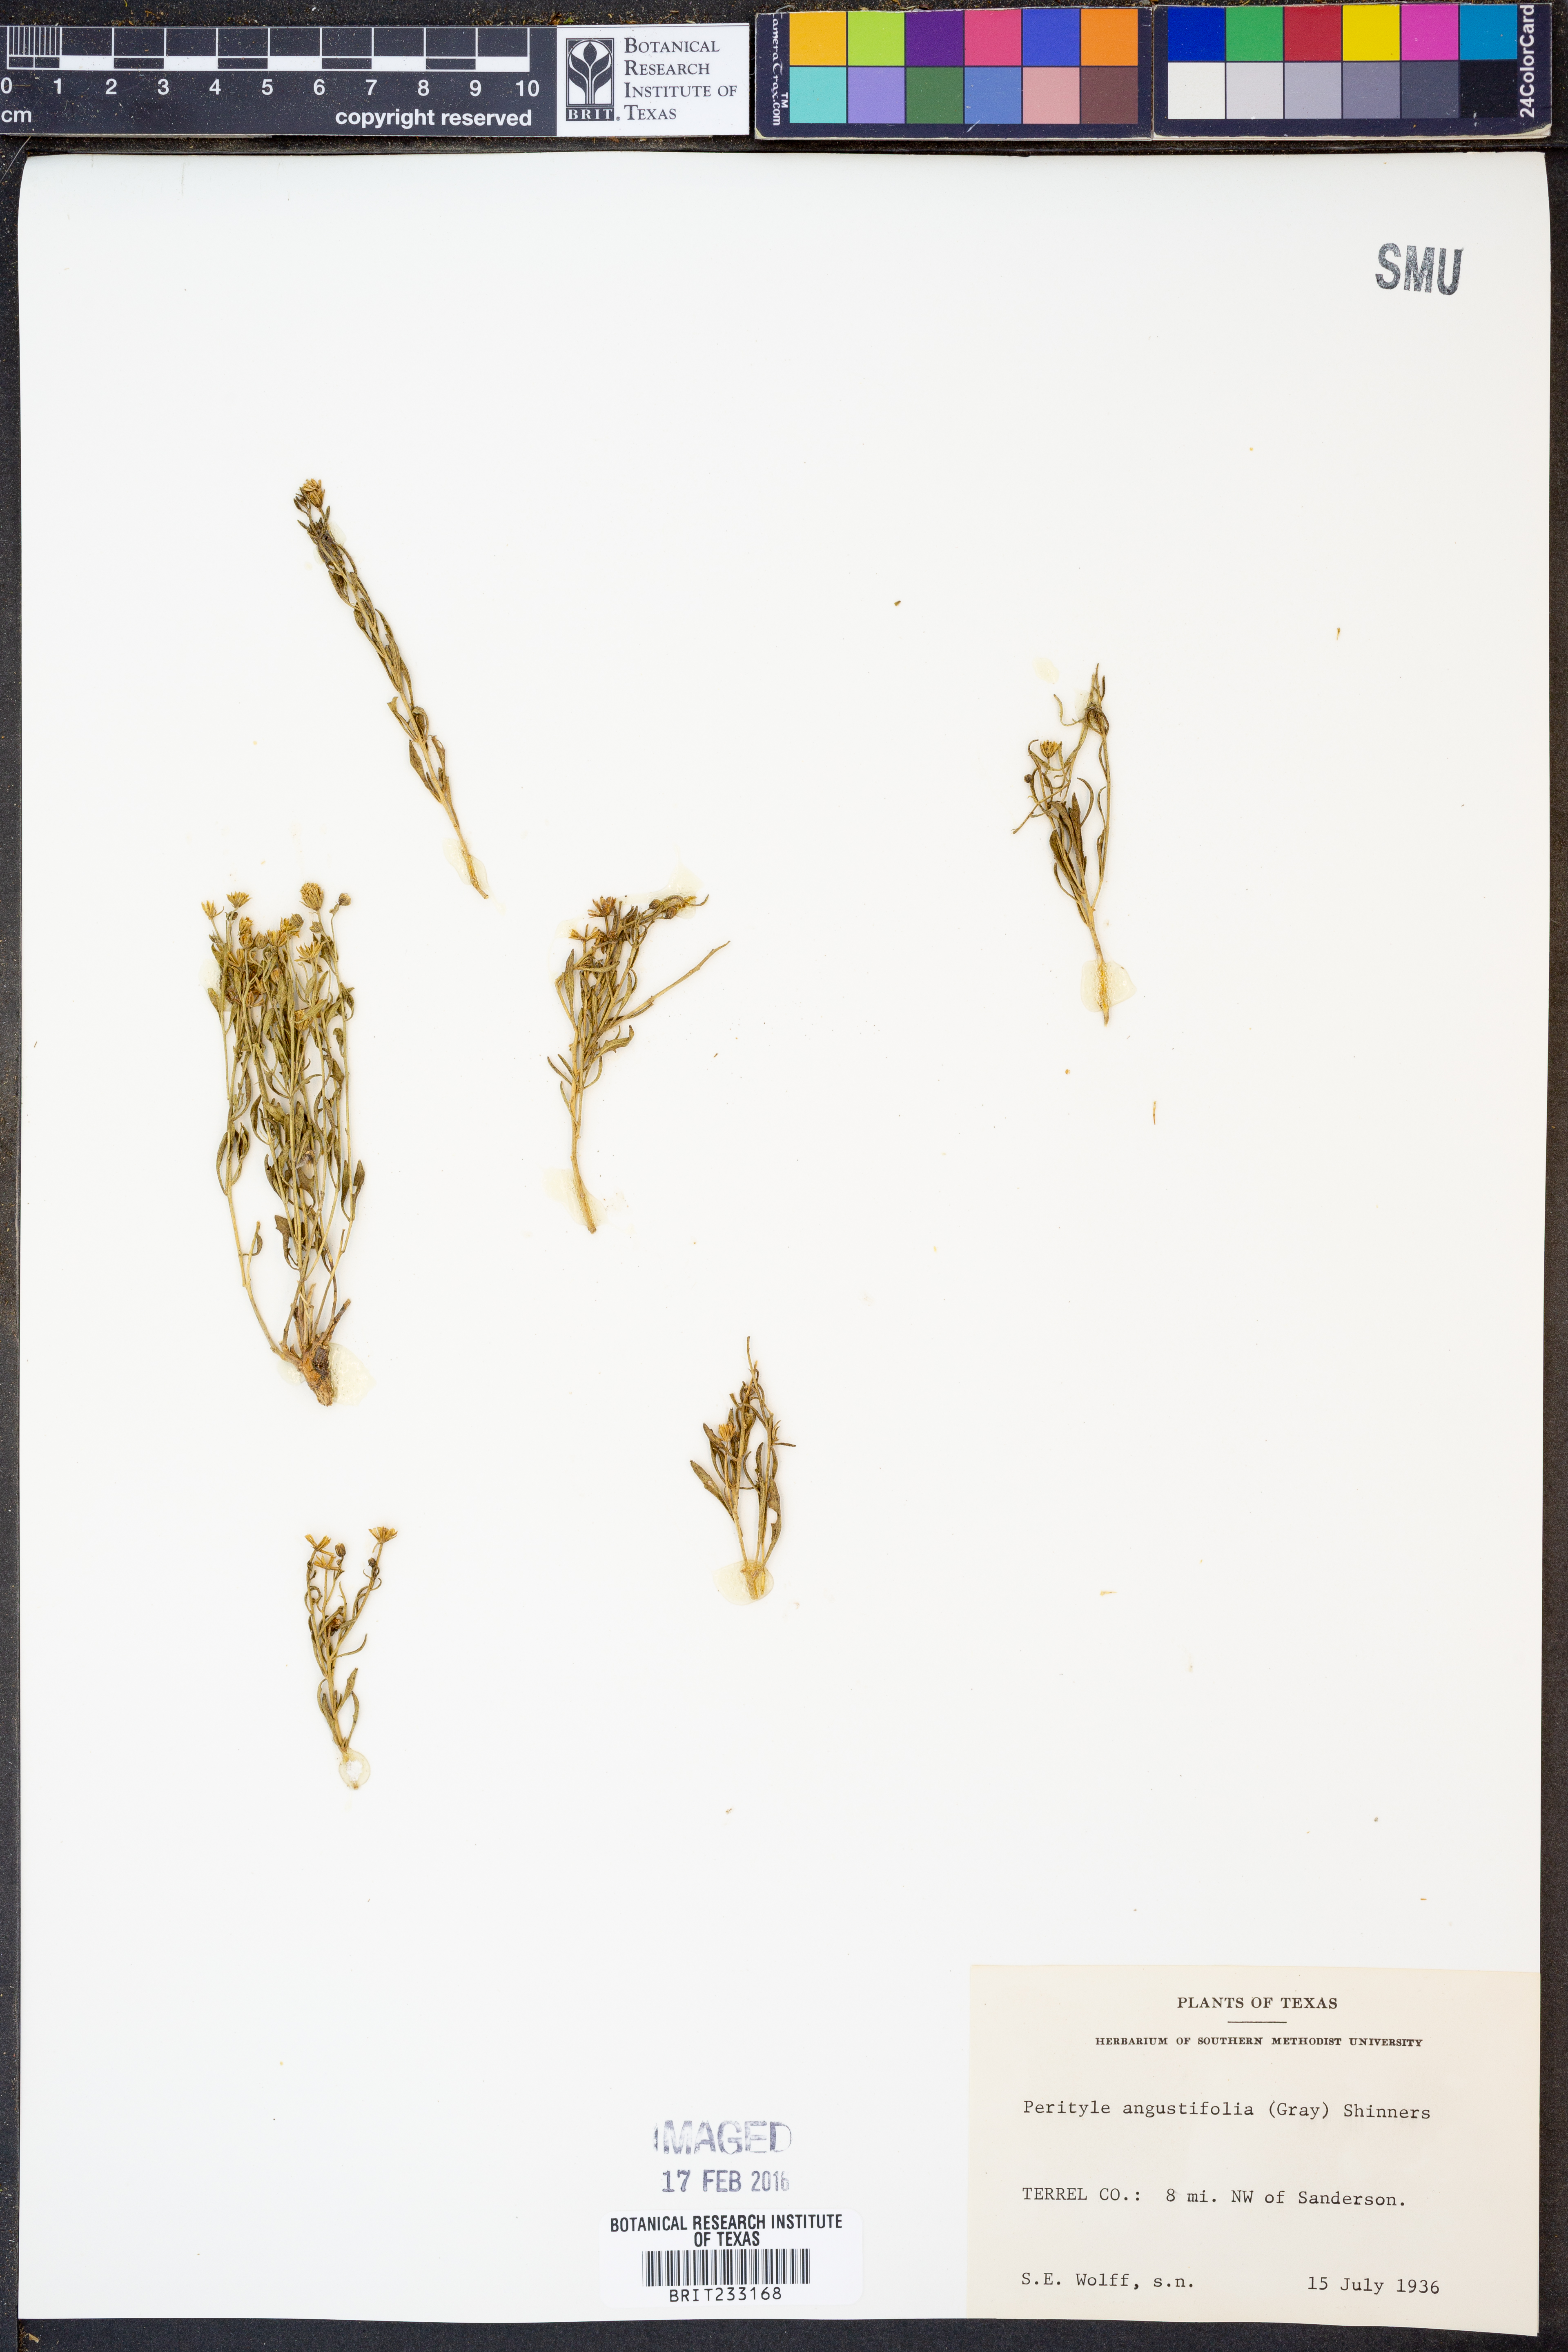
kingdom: Plantae
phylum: Tracheophyta
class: Magnoliopsida
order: Asterales
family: Asteraceae
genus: Laphamia
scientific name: Laphamia angustifolia
